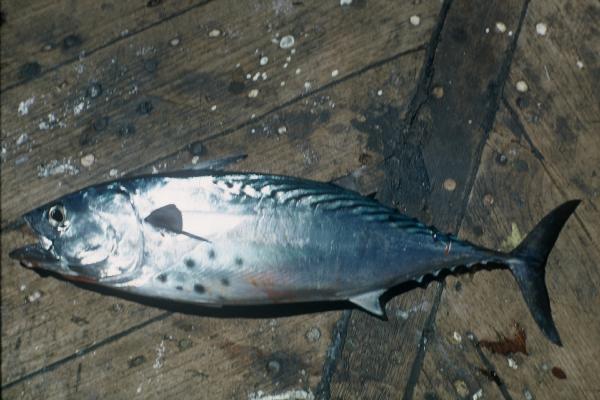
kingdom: Animalia
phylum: Chordata
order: Perciformes
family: Scombridae
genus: Euthynnus
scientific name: Euthynnus affinis
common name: Mackerel tuna
